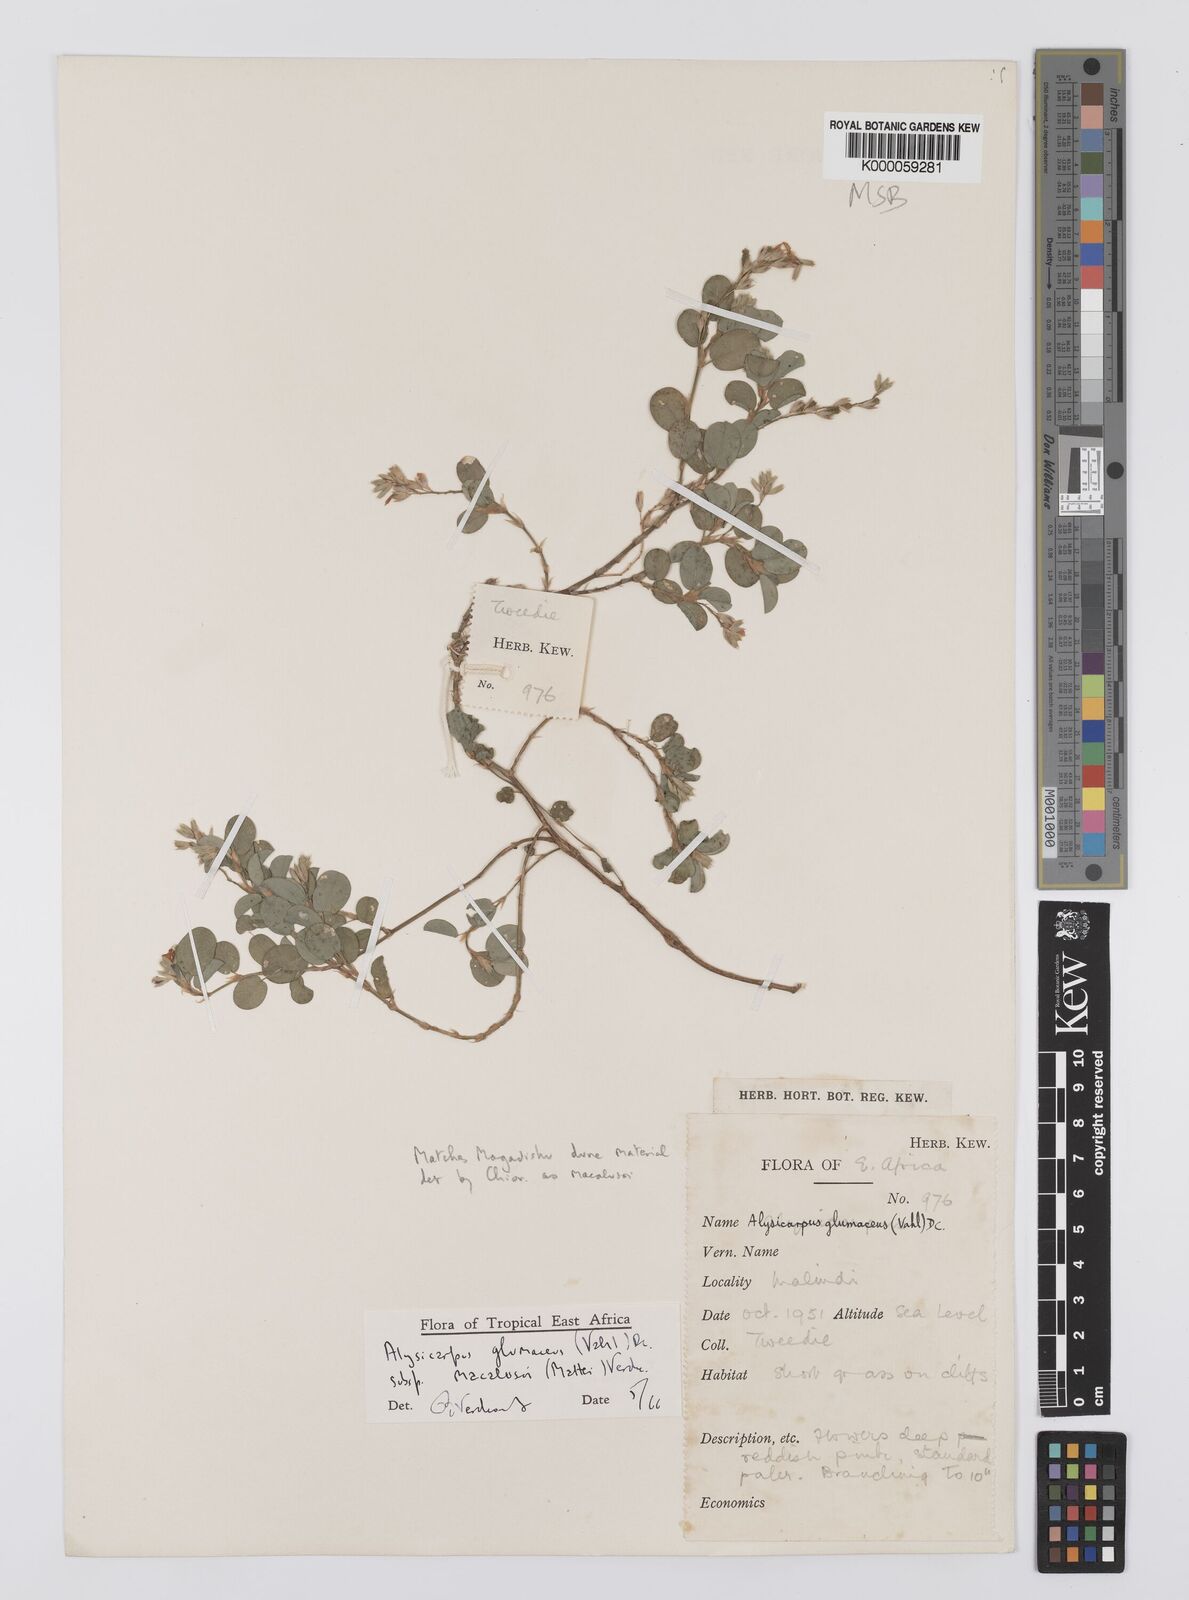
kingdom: Plantae
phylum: Tracheophyta
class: Magnoliopsida
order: Fabales
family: Fabaceae
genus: Alysicarpus
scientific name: Alysicarpus glumaceus
